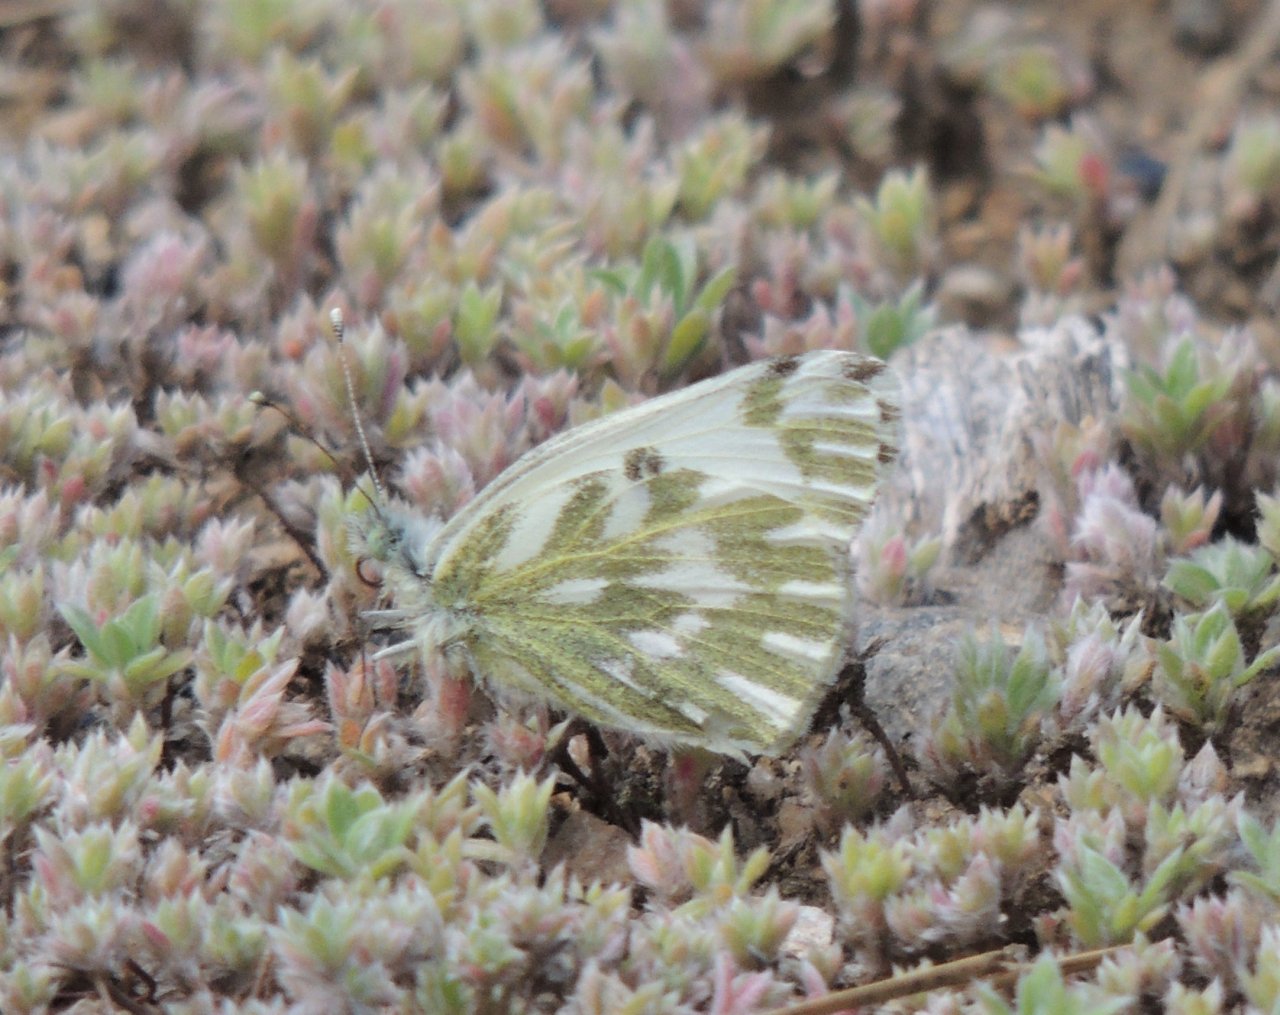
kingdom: Animalia
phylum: Arthropoda
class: Insecta
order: Lepidoptera
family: Pieridae
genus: Pontia
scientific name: Pontia beckerii
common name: Becker's White
